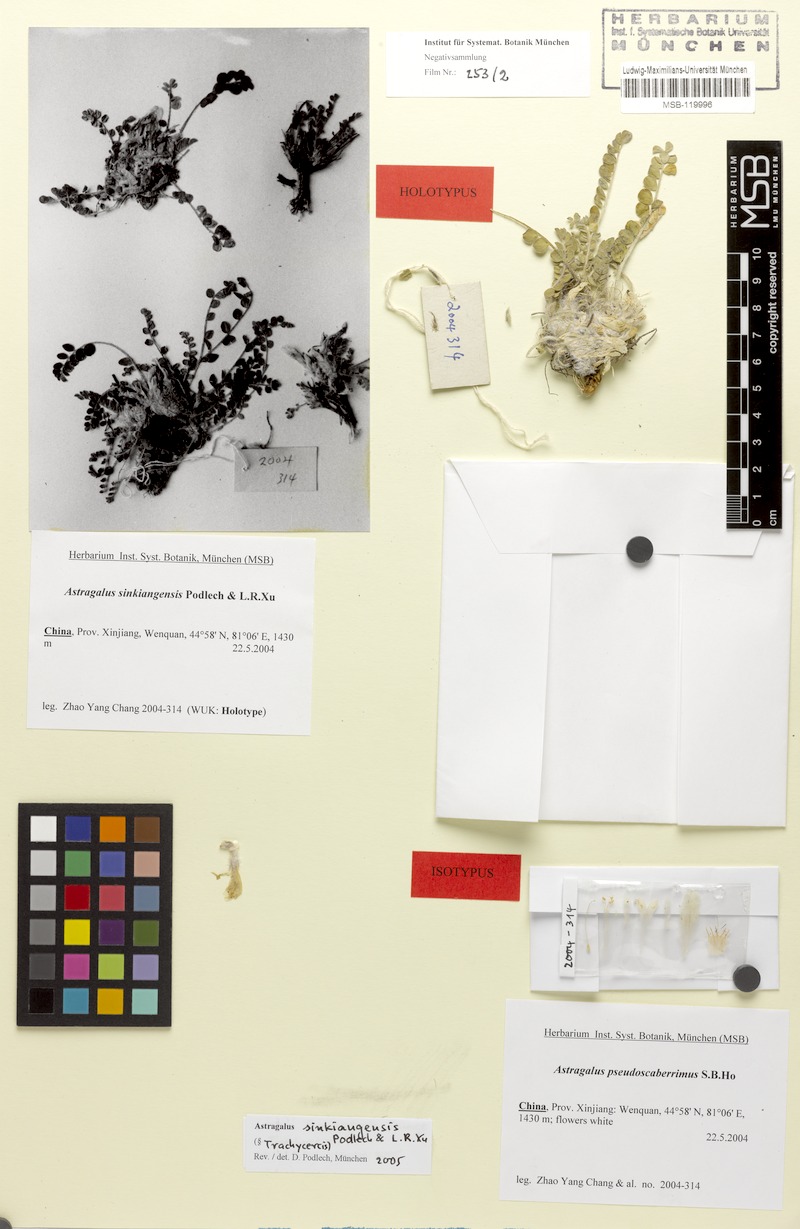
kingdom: Plantae
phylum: Tracheophyta
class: Magnoliopsida
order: Fabales
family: Fabaceae
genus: Astragalus
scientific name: Astragalus sinkiangensis
